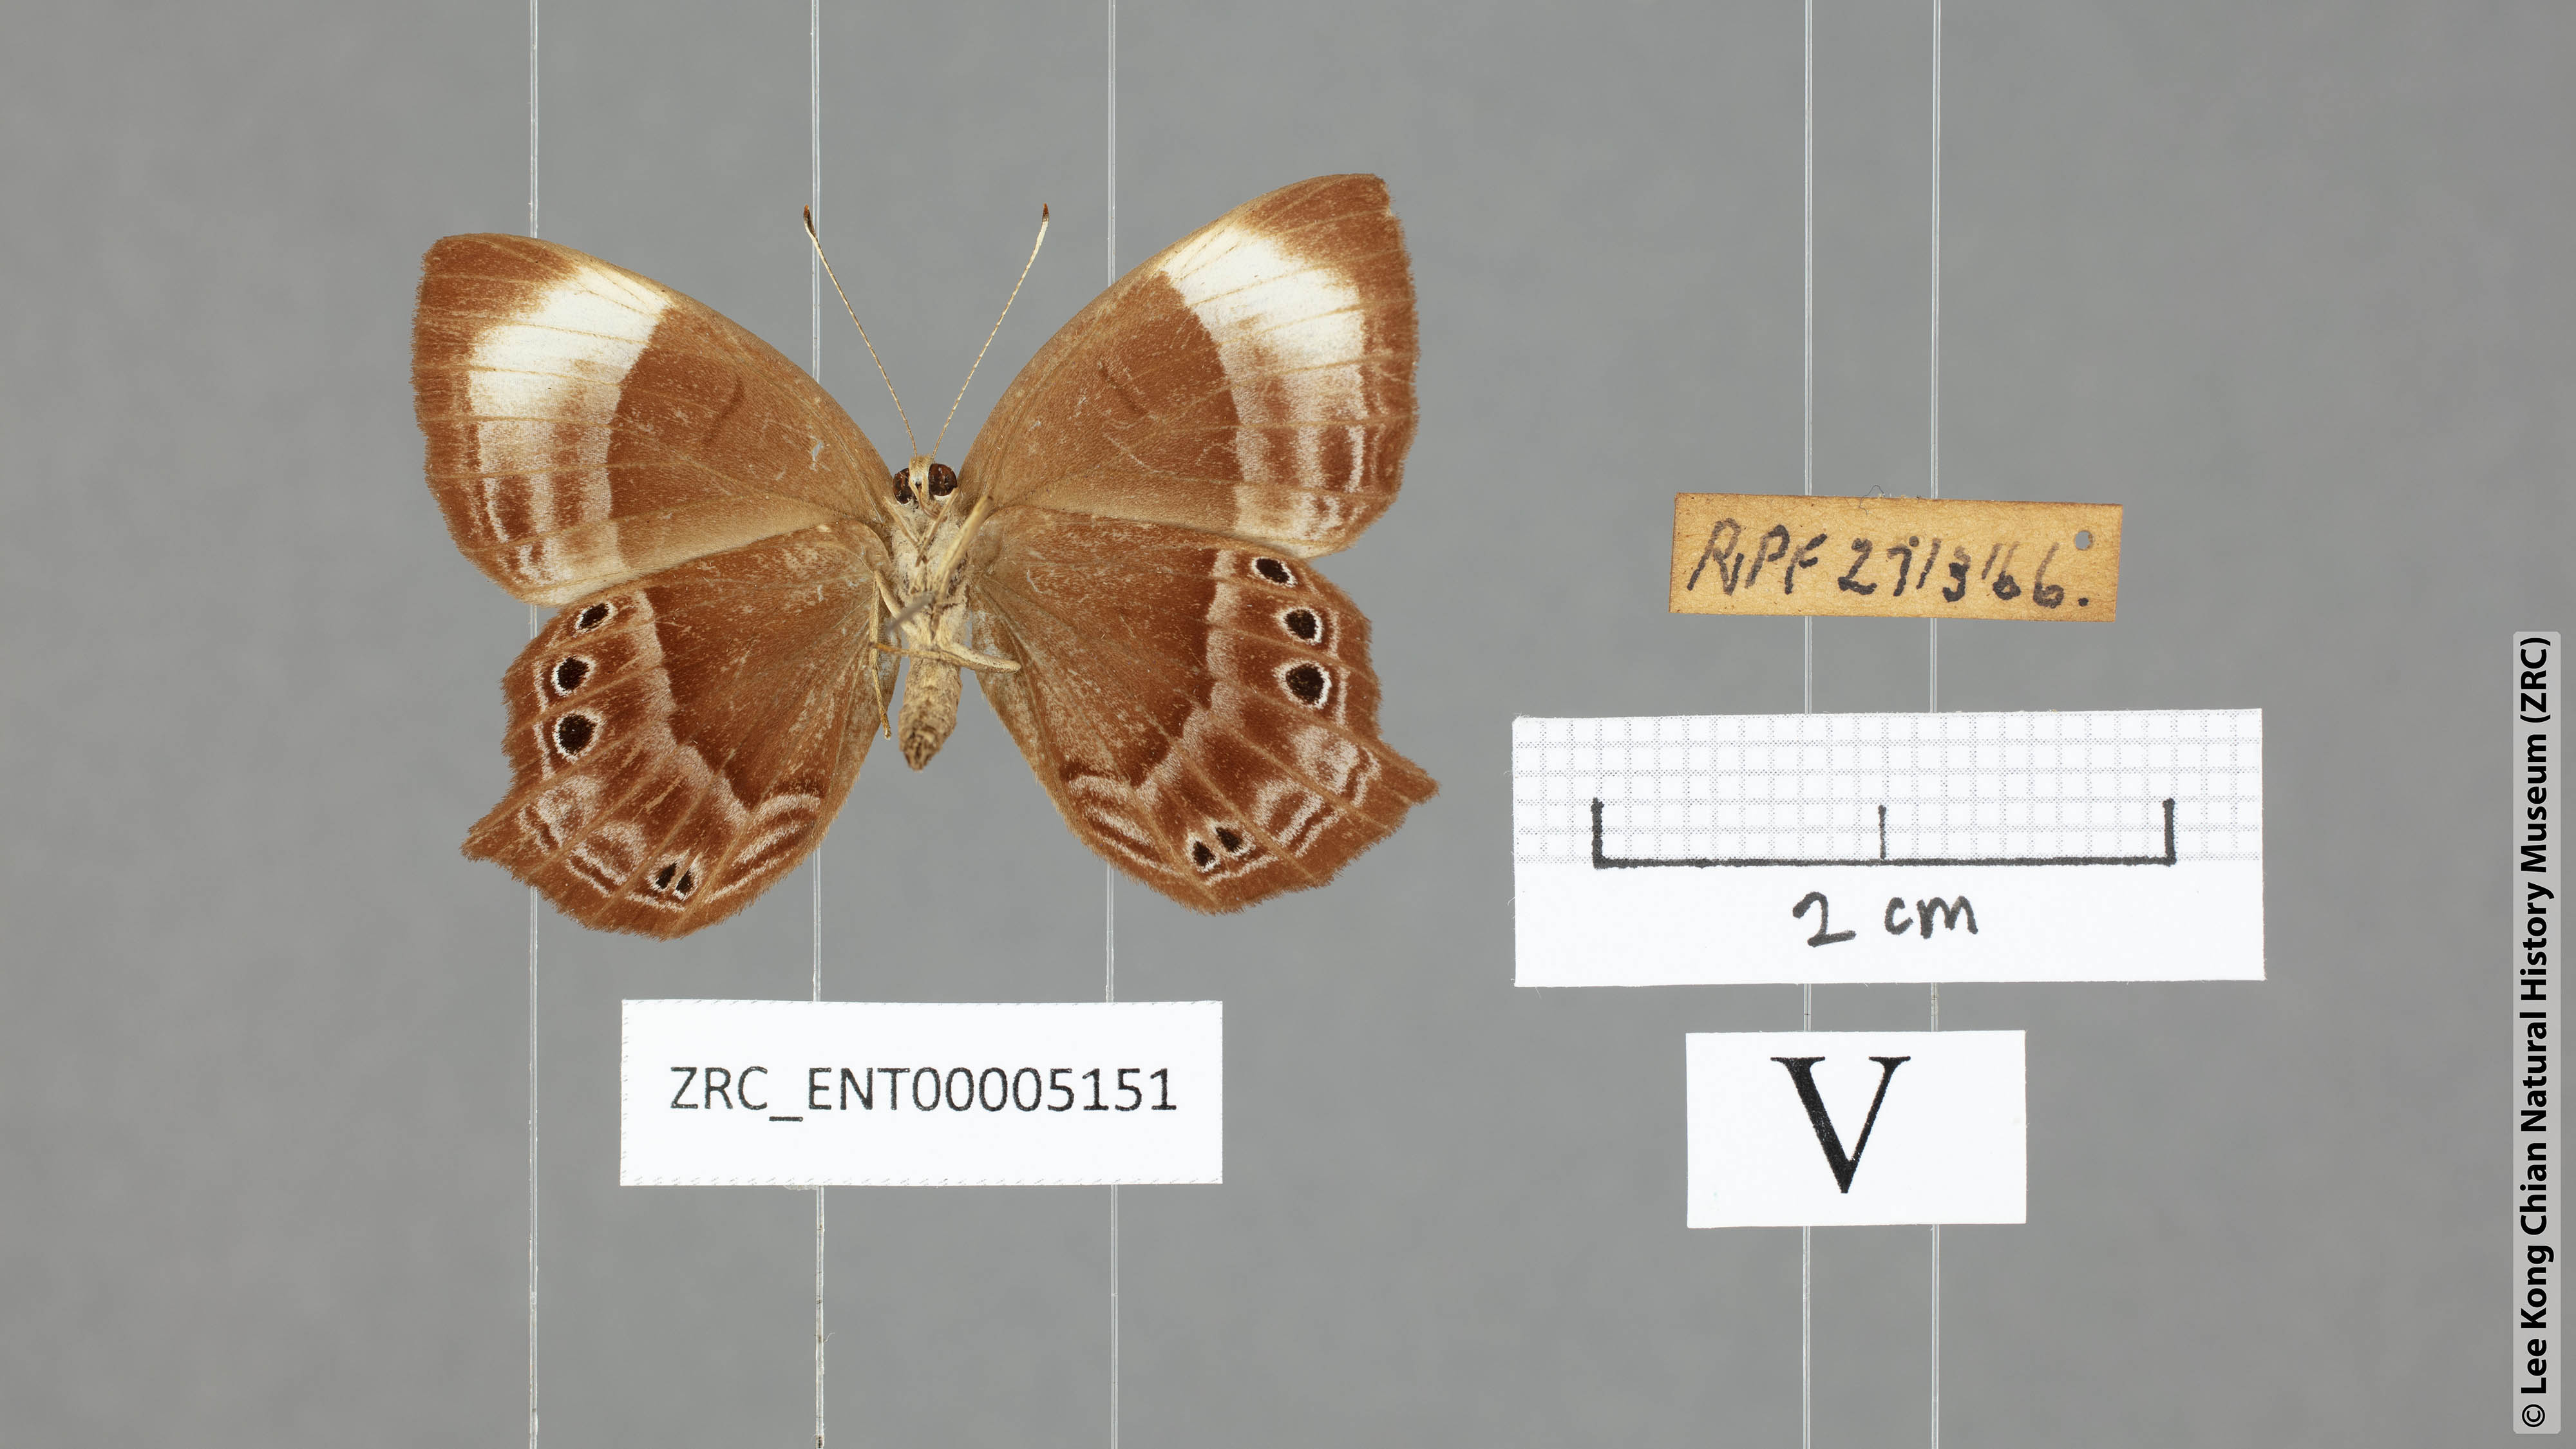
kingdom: Animalia
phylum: Arthropoda
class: Insecta
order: Lepidoptera
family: Lycaenidae
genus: Abisara
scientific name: Abisara geza
